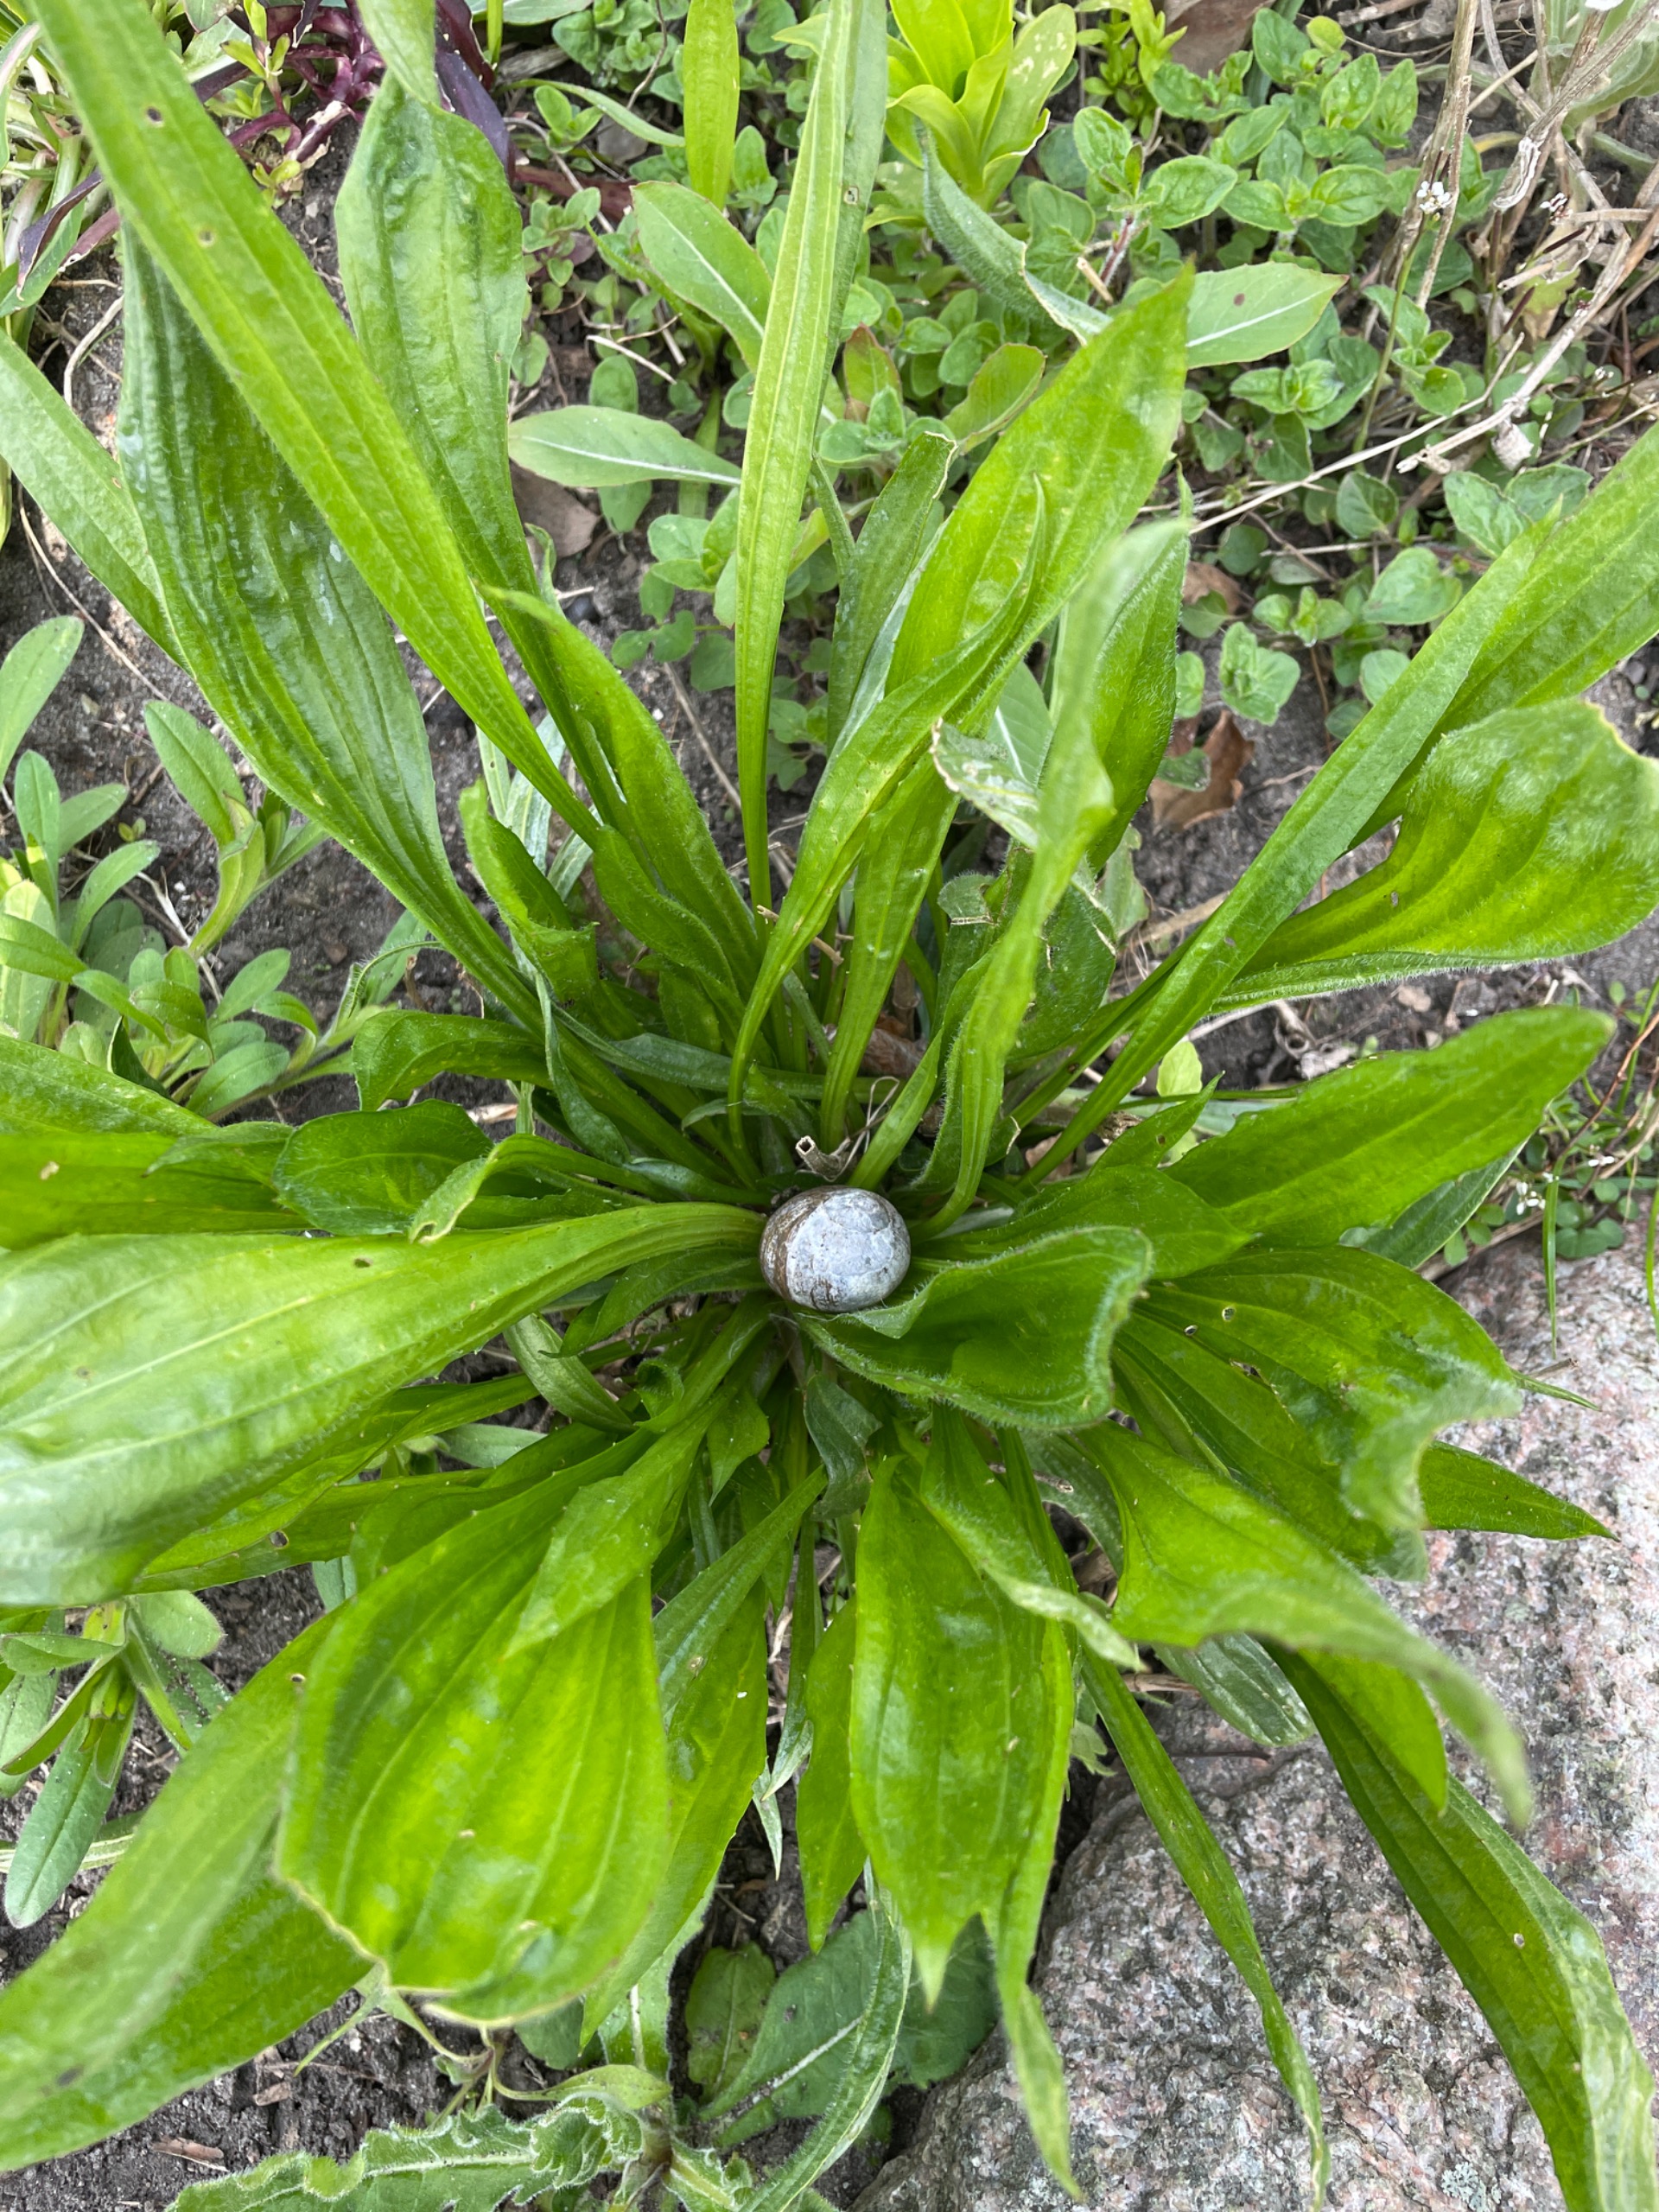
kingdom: Plantae
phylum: Tracheophyta
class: Magnoliopsida
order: Lamiales
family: Plantaginaceae
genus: Plantago
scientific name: Plantago lanceolata
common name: Lancet-vejbred
